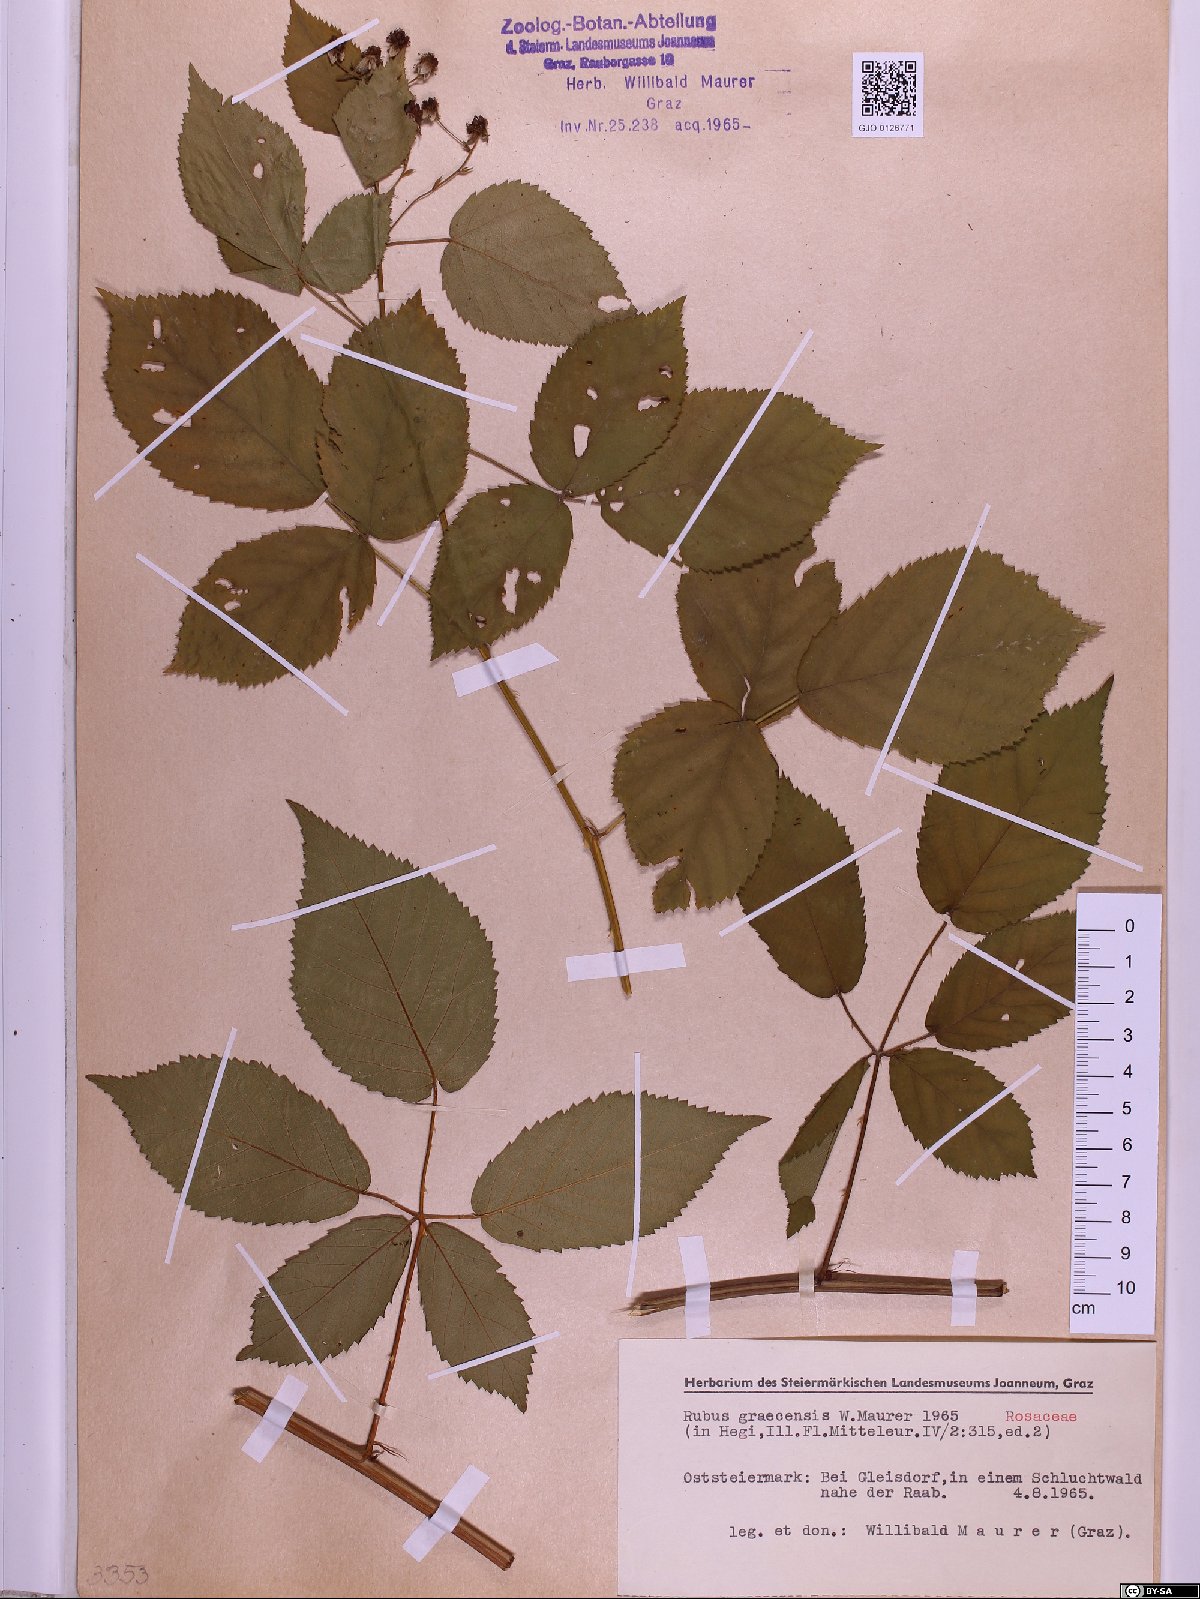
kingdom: Plantae
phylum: Tracheophyta
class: Magnoliopsida
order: Rosales
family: Rosaceae
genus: Rubus
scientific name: Rubus graecensis
